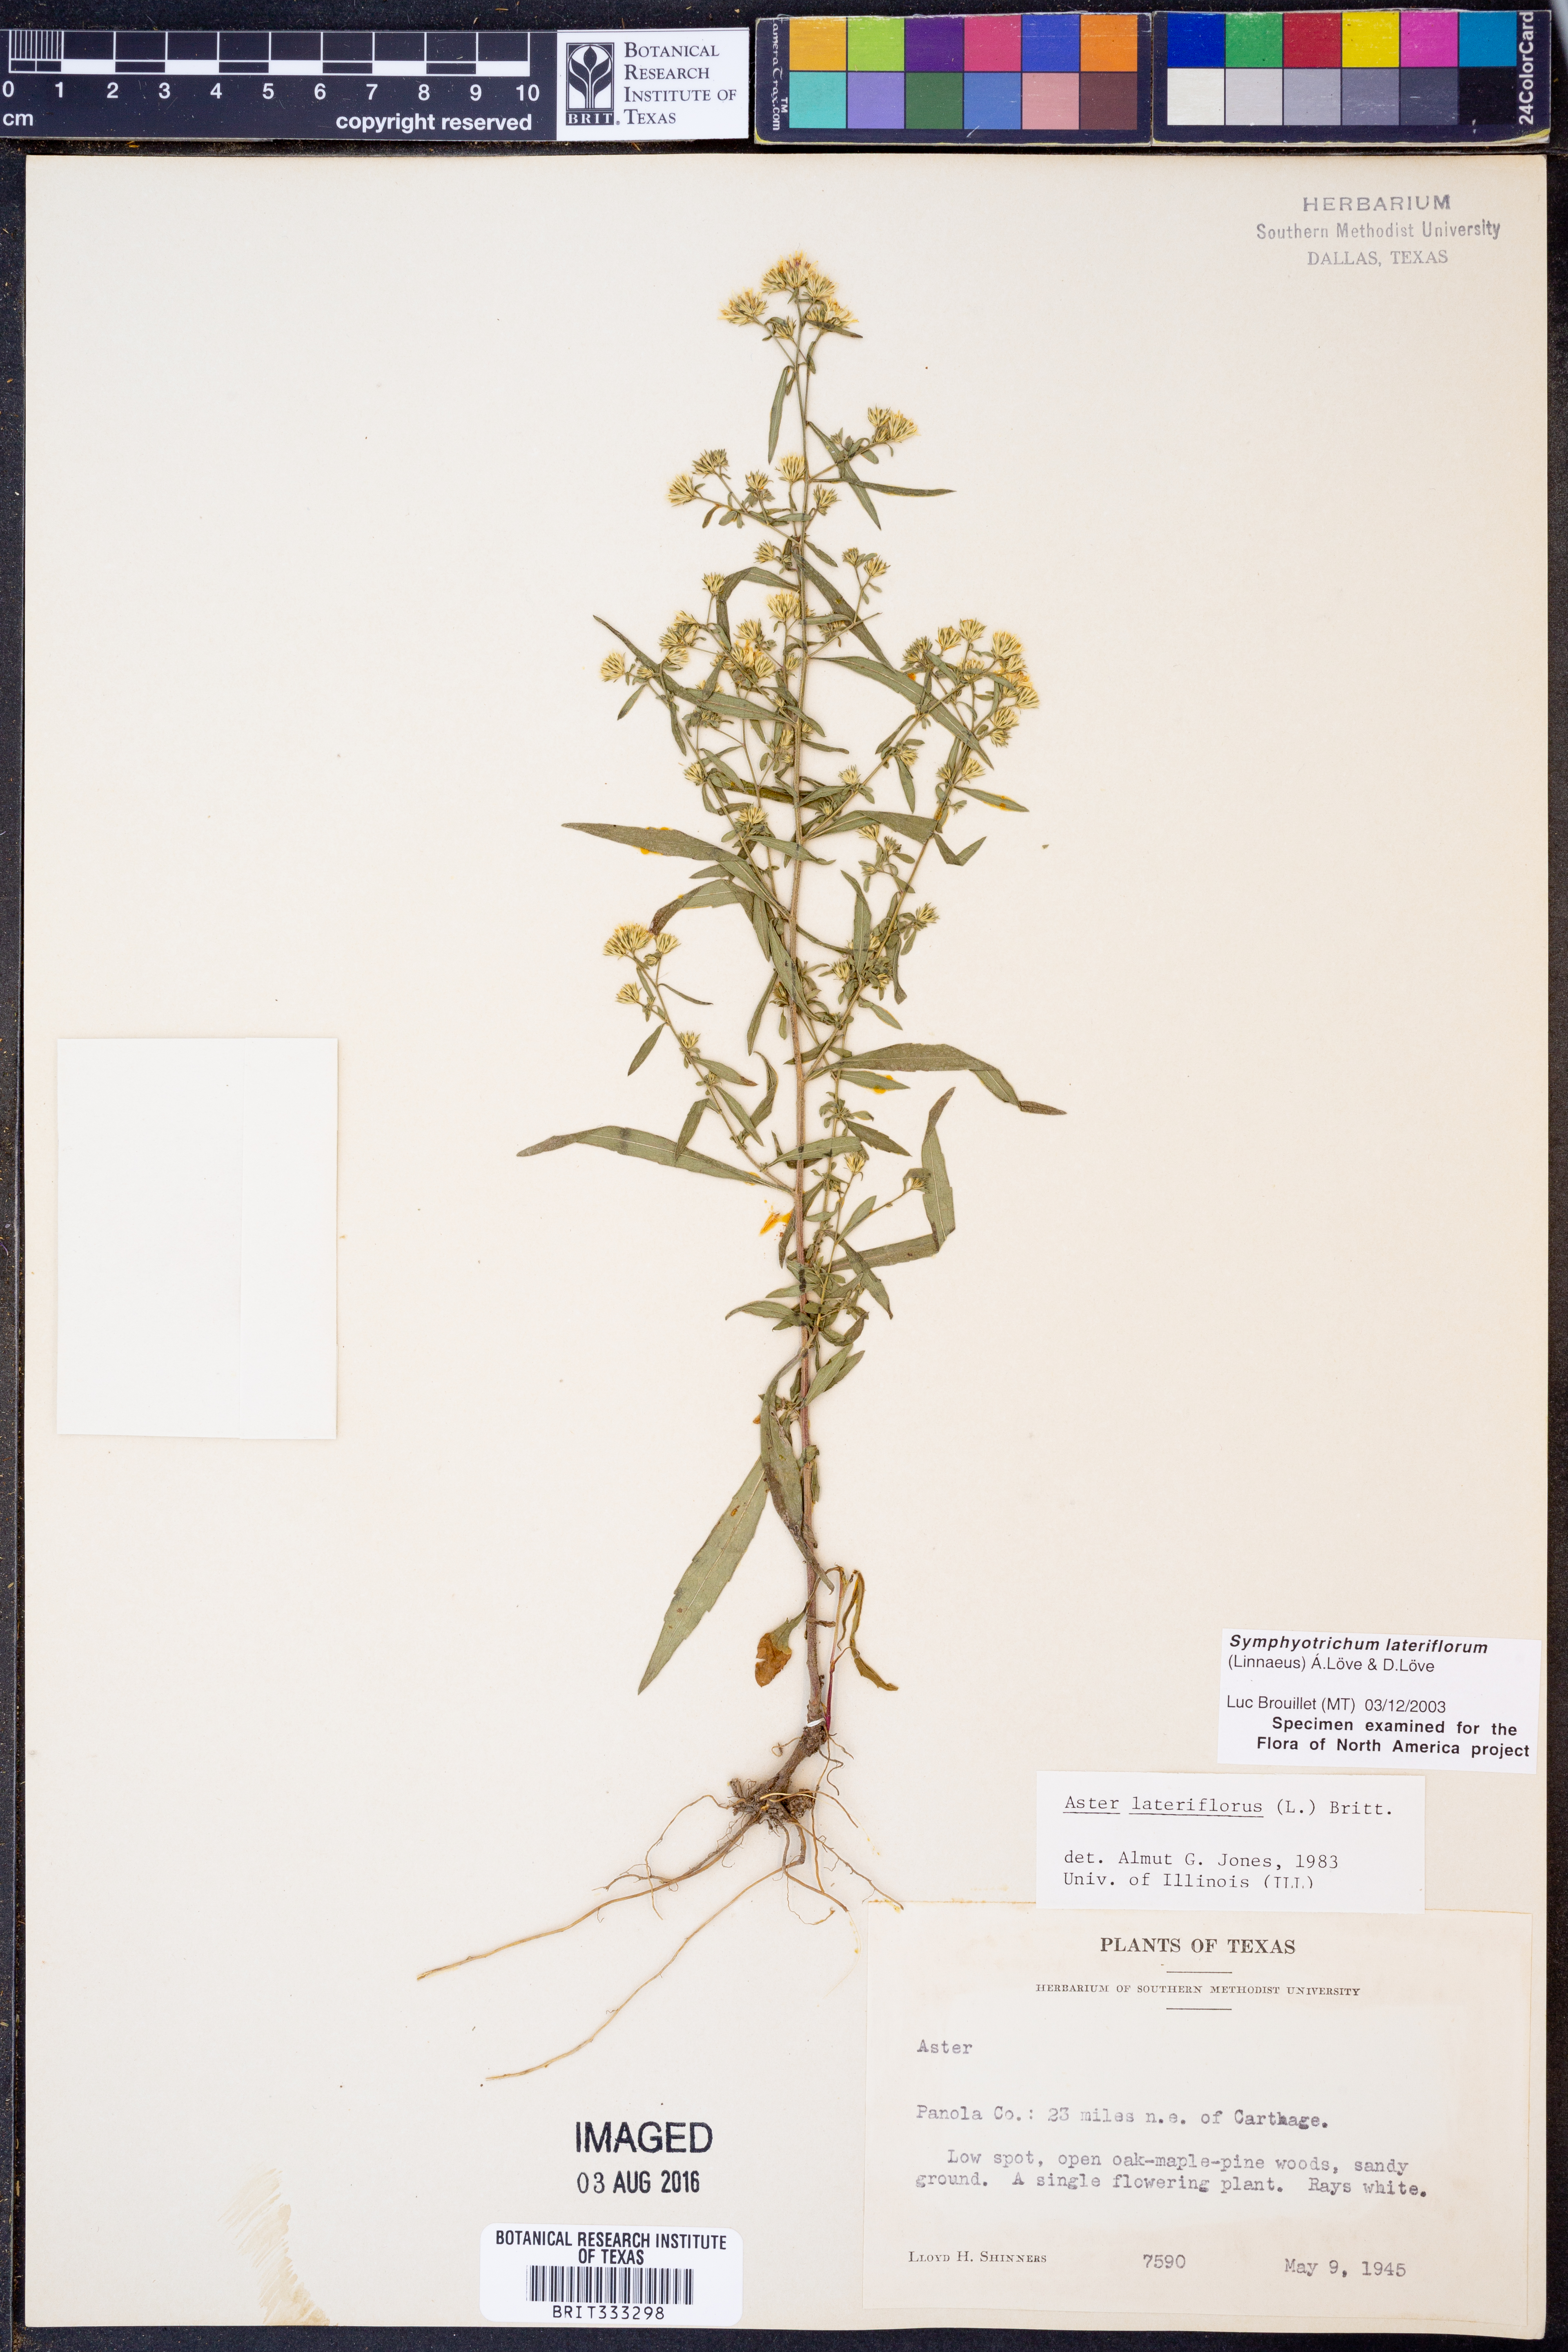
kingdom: Plantae
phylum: Tracheophyta
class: Magnoliopsida
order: Asterales
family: Asteraceae
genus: Symphyotrichum
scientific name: Symphyotrichum lateriflorum
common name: Calico aster
